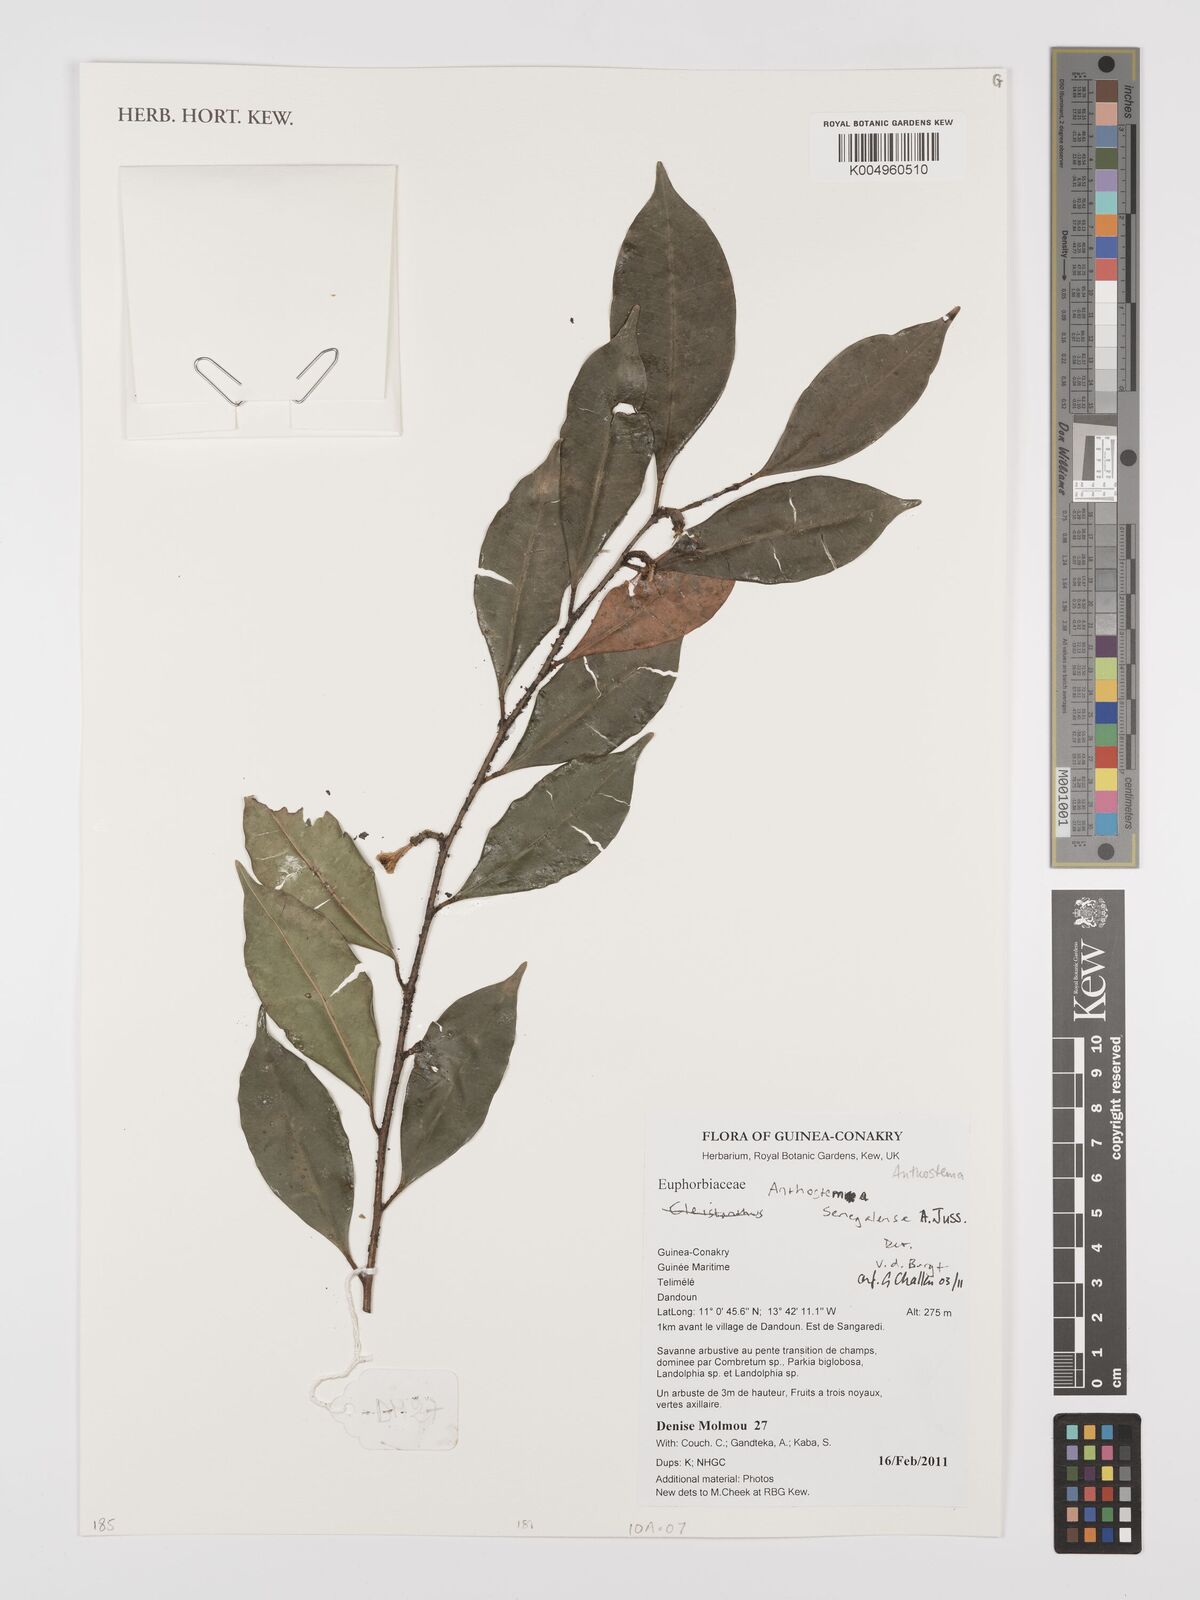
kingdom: Plantae
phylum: Tracheophyta
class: Magnoliopsida
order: Malpighiales
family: Euphorbiaceae
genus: Anthostema
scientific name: Anthostema senegalense
